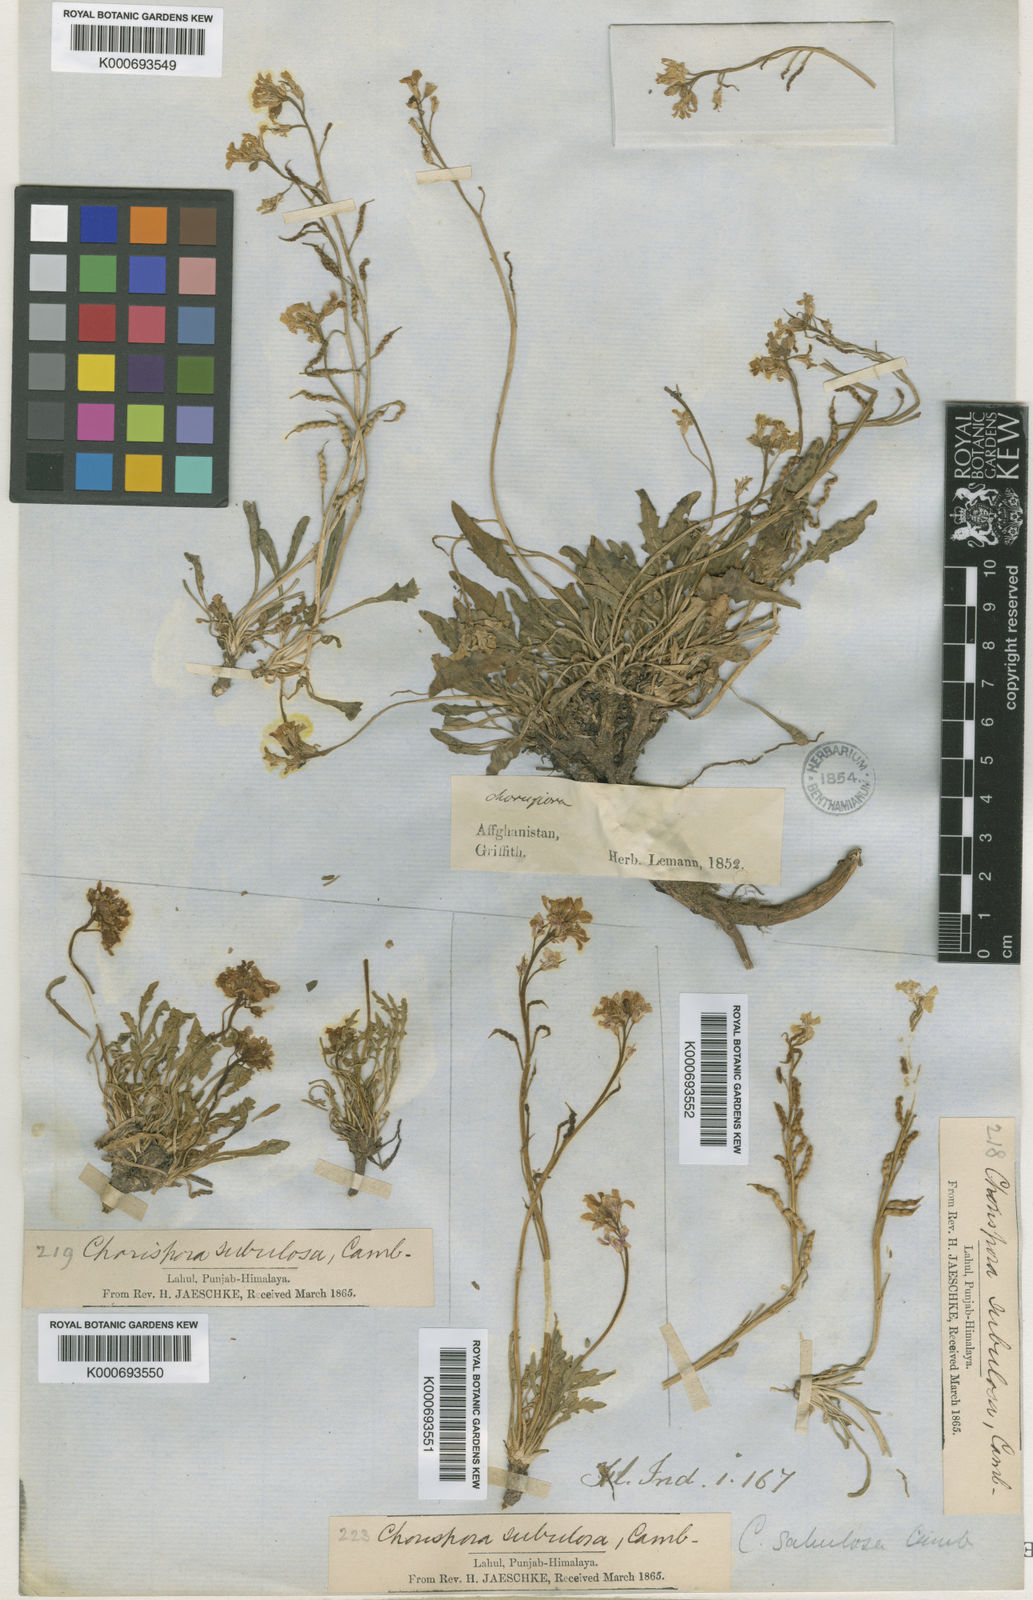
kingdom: Plantae
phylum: Tracheophyta
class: Magnoliopsida
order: Brassicales
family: Brassicaceae
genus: Chorispora
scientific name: Chorispora sabulosa
